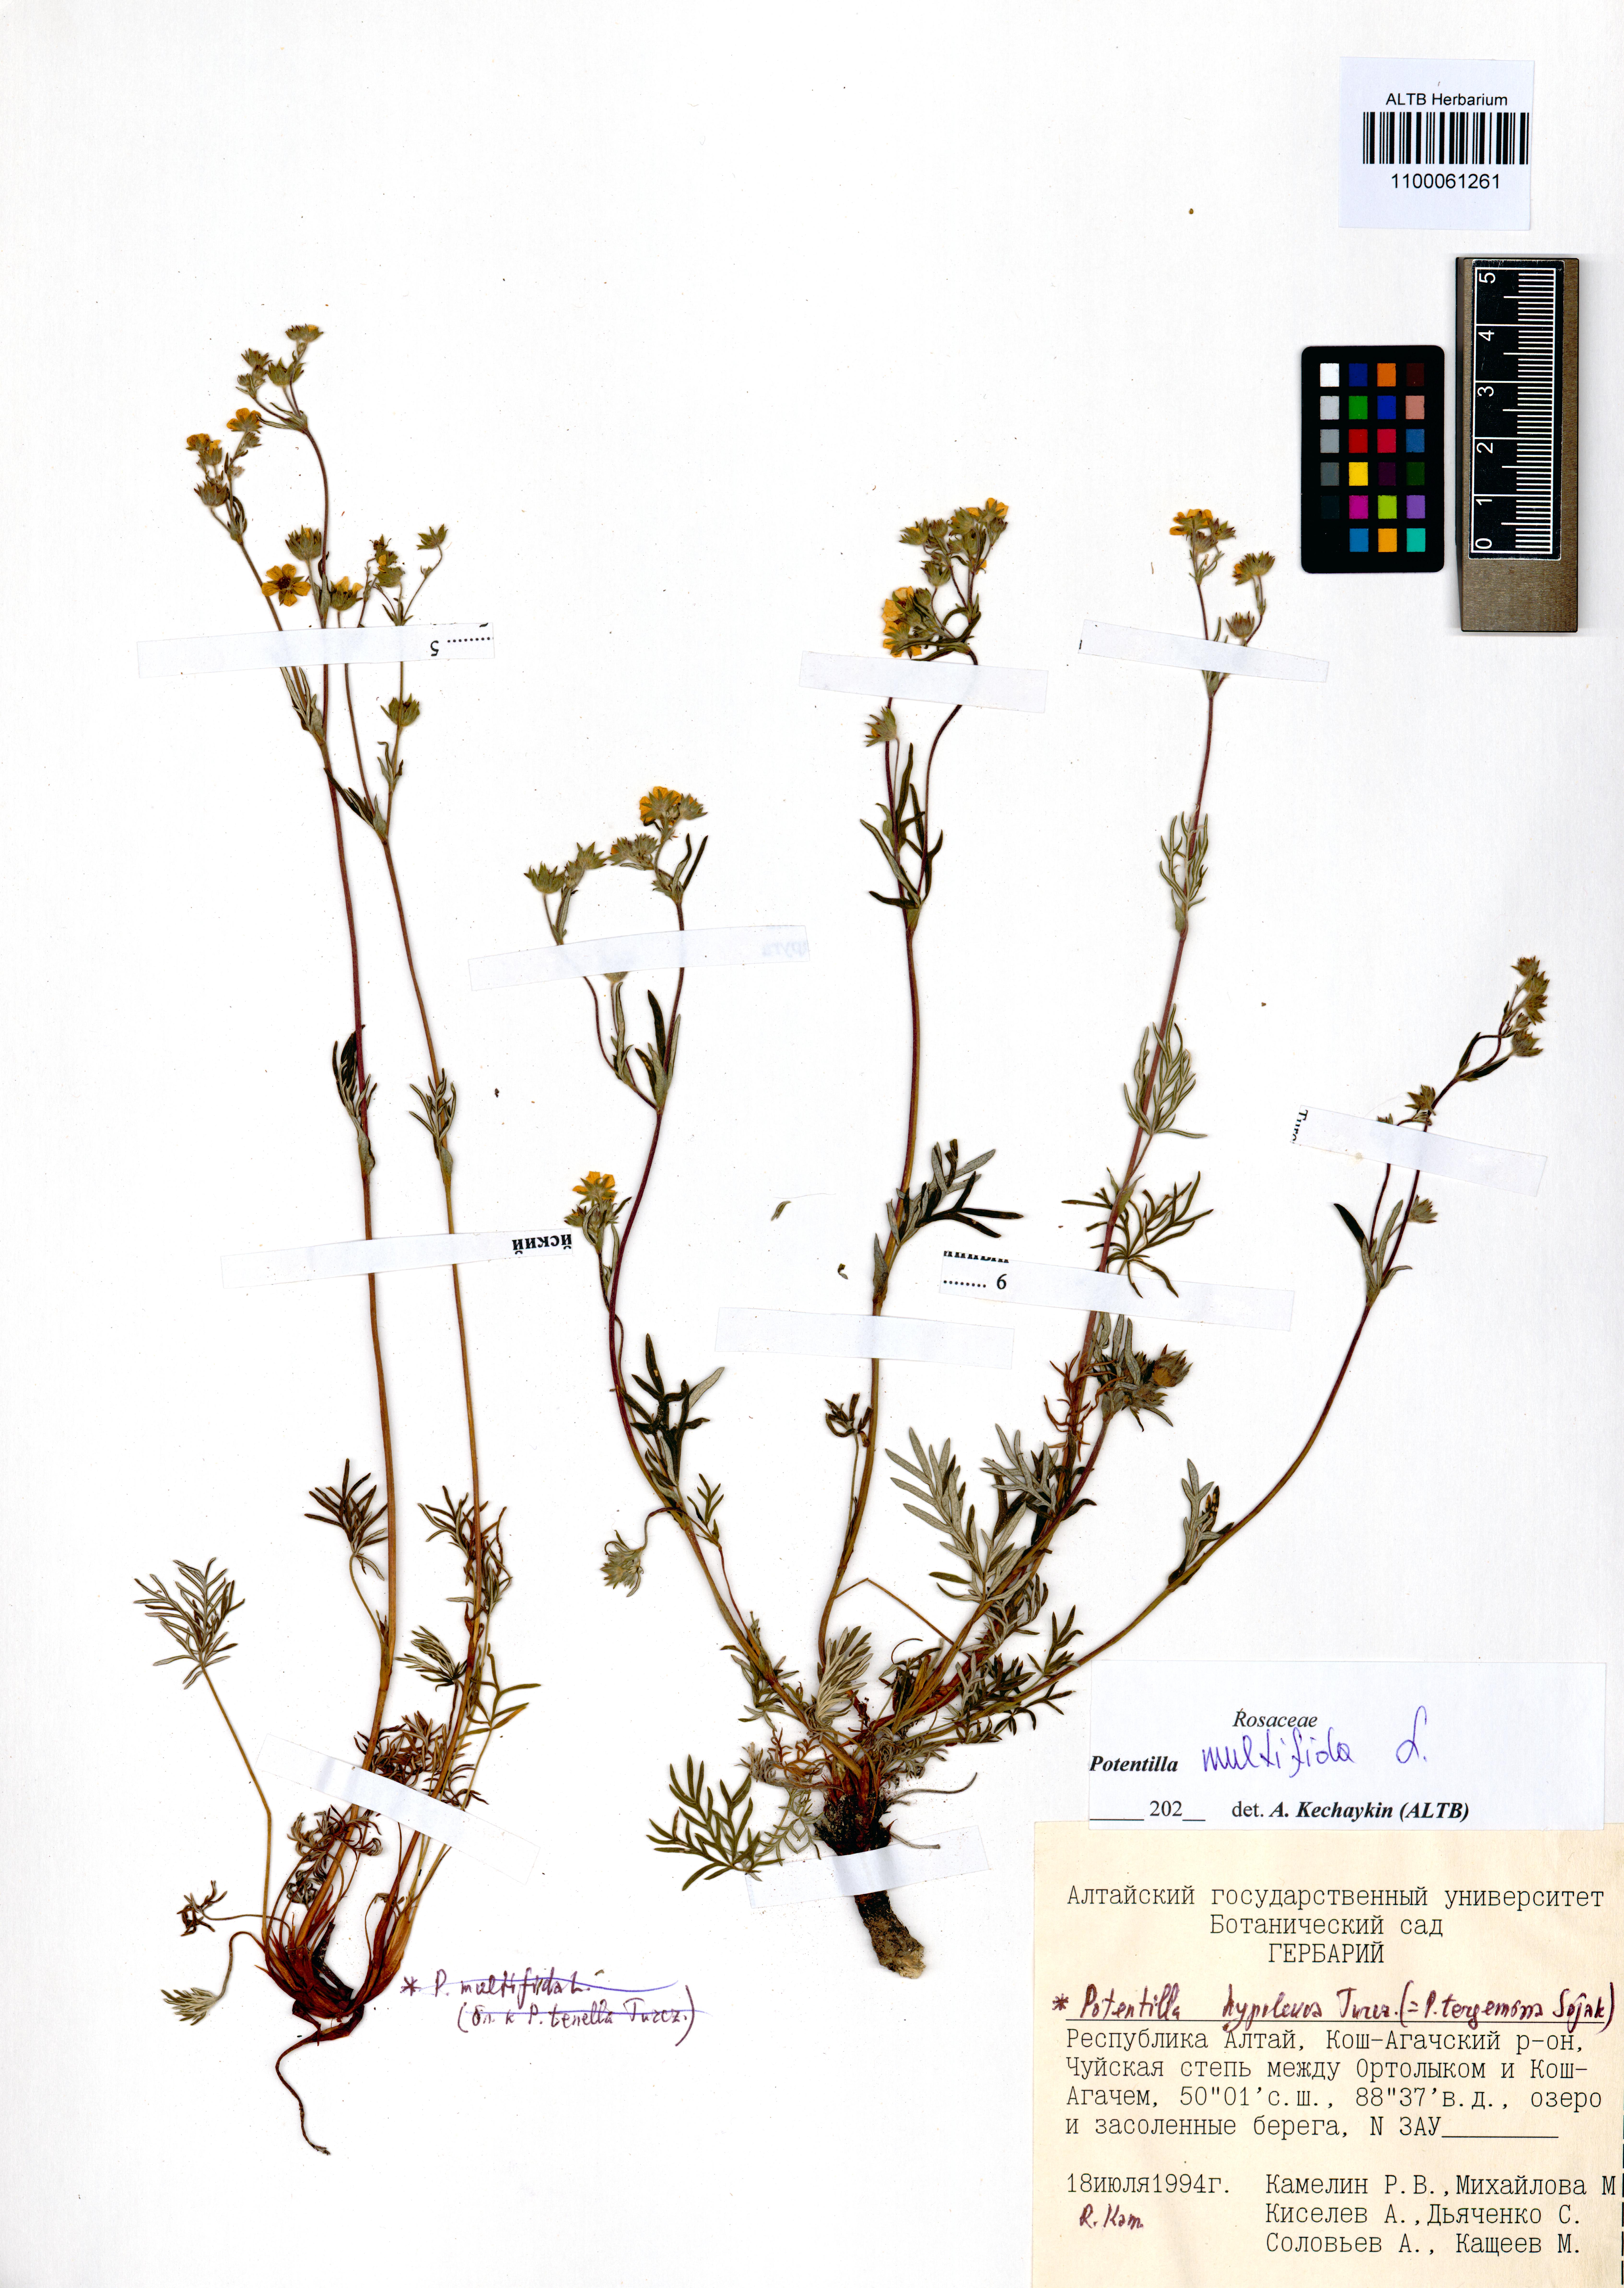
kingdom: Plantae
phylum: Tracheophyta
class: Magnoliopsida
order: Rosales
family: Rosaceae
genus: Potentilla
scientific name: Potentilla multifida
